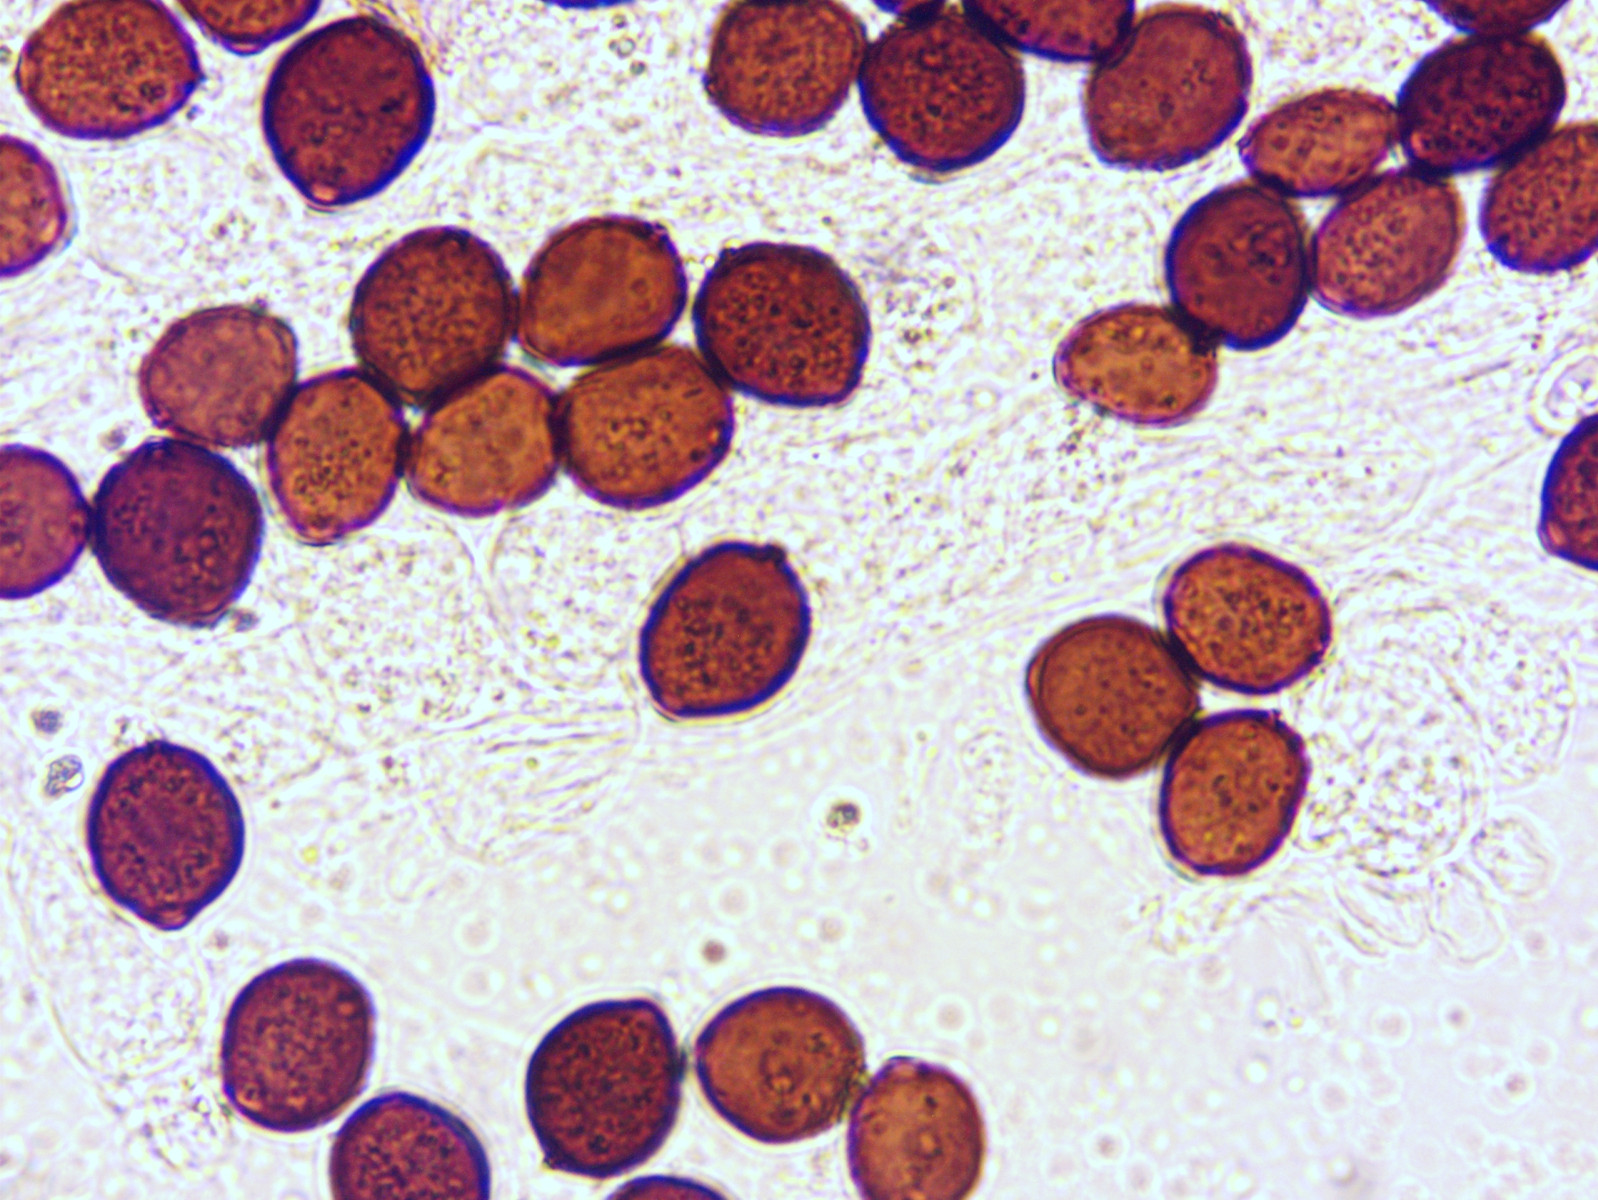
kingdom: Fungi
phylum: Basidiomycota
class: Agaricomycetes
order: Agaricales
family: Psathyrellaceae
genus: Coprinopsis
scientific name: Coprinopsis nivea
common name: snehvid blækhat
